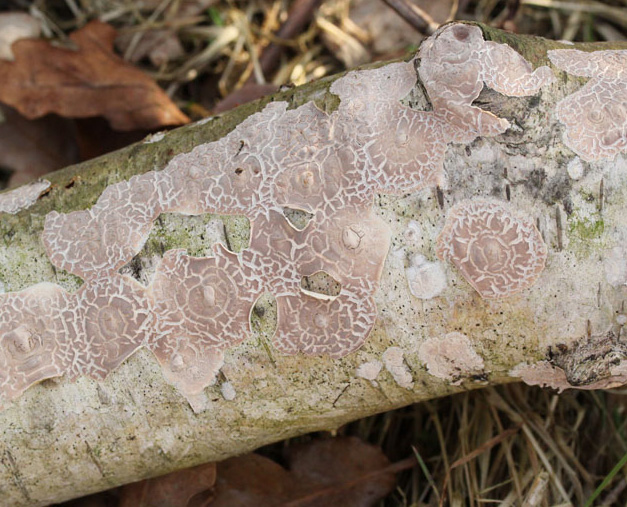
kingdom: Fungi
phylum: Basidiomycota
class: Agaricomycetes
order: Agaricales
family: Physalacriaceae
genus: Cylindrobasidium
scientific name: Cylindrobasidium evolvens
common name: sprækkehinde
